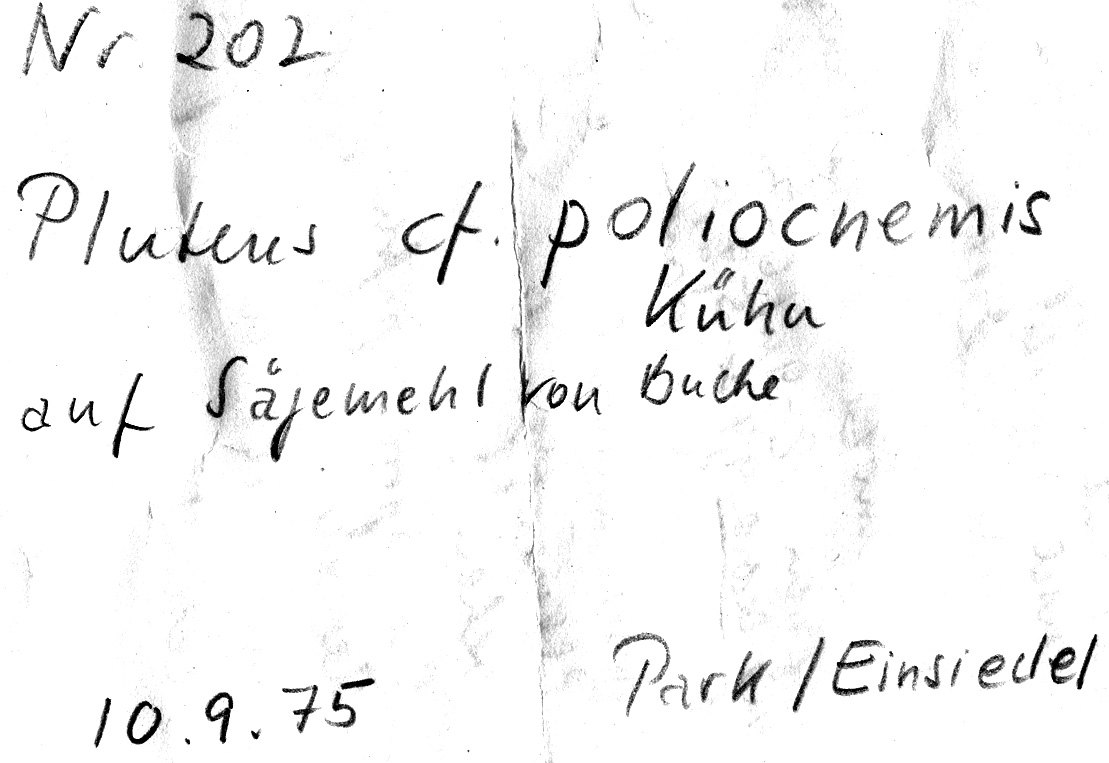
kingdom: Fungi
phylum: Basidiomycota
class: Agaricomycetes
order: Agaricales
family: Pluteaceae
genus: Pluteus
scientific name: Pluteus poliocnemis
